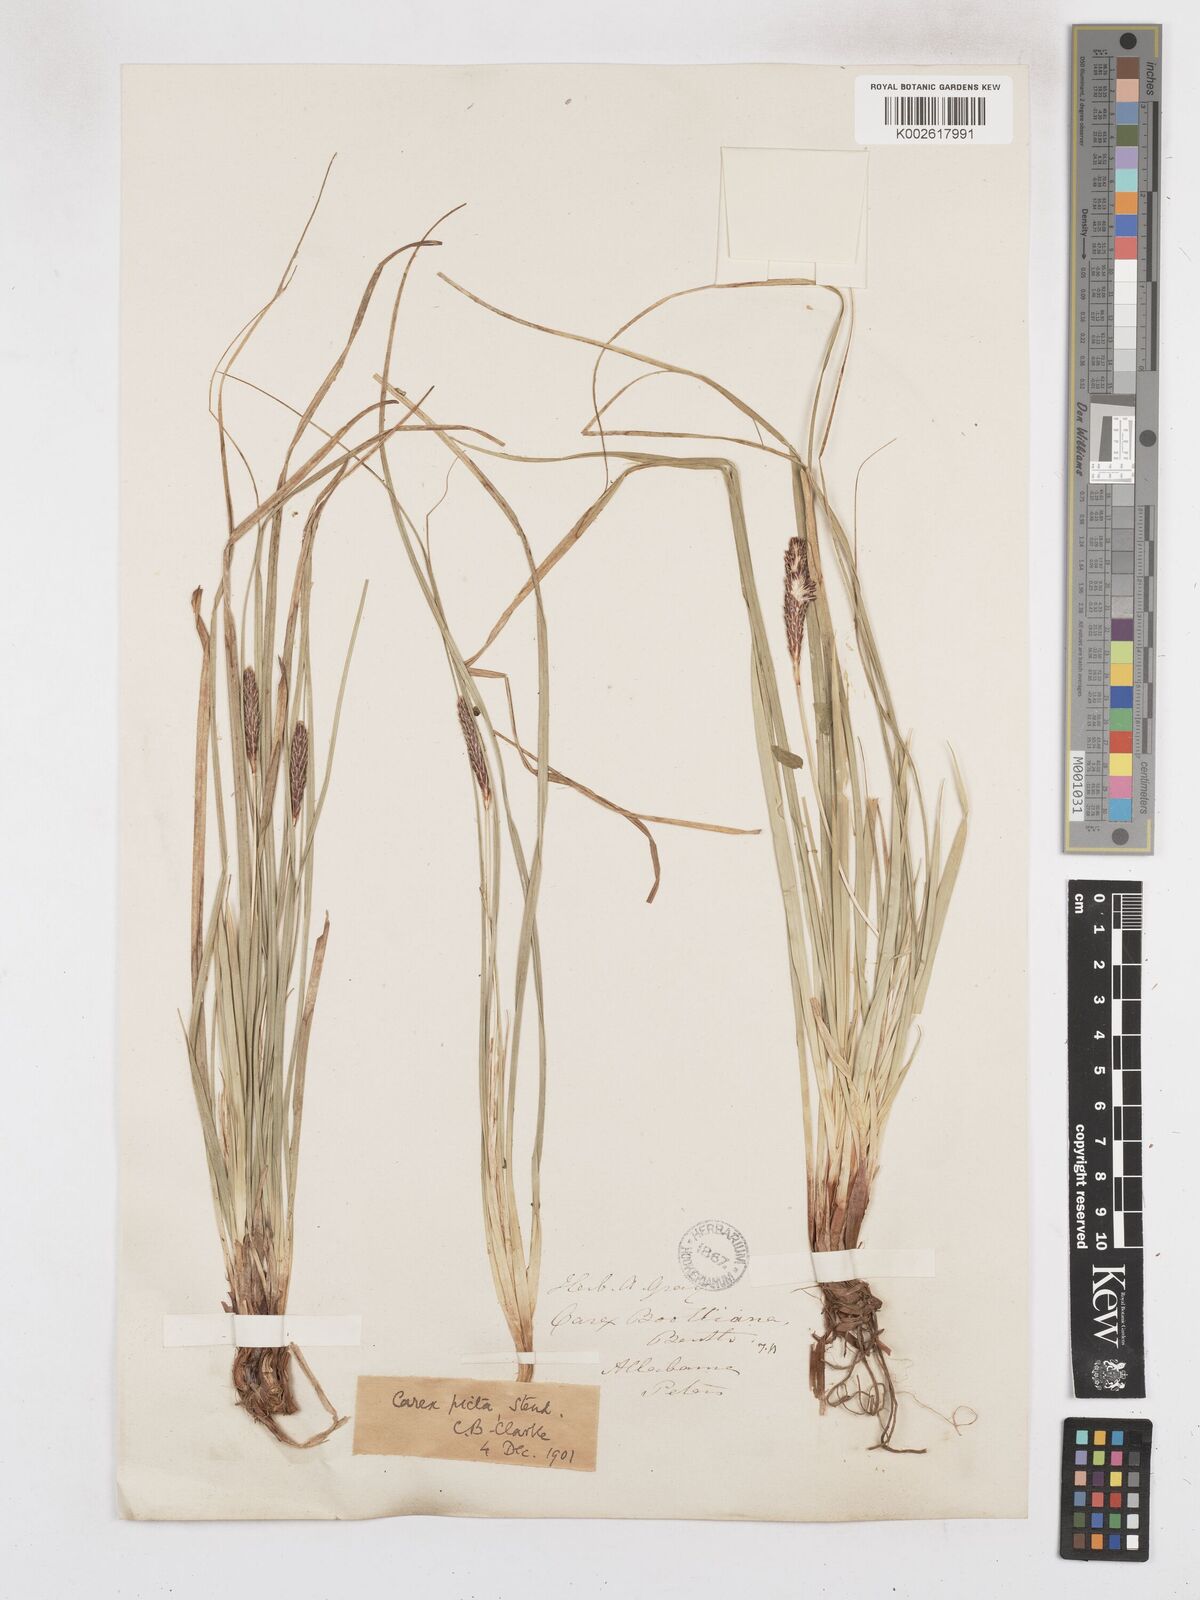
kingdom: Plantae
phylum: Tracheophyta
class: Liliopsida
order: Poales
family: Cyperaceae
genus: Carex
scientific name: Carex picta
